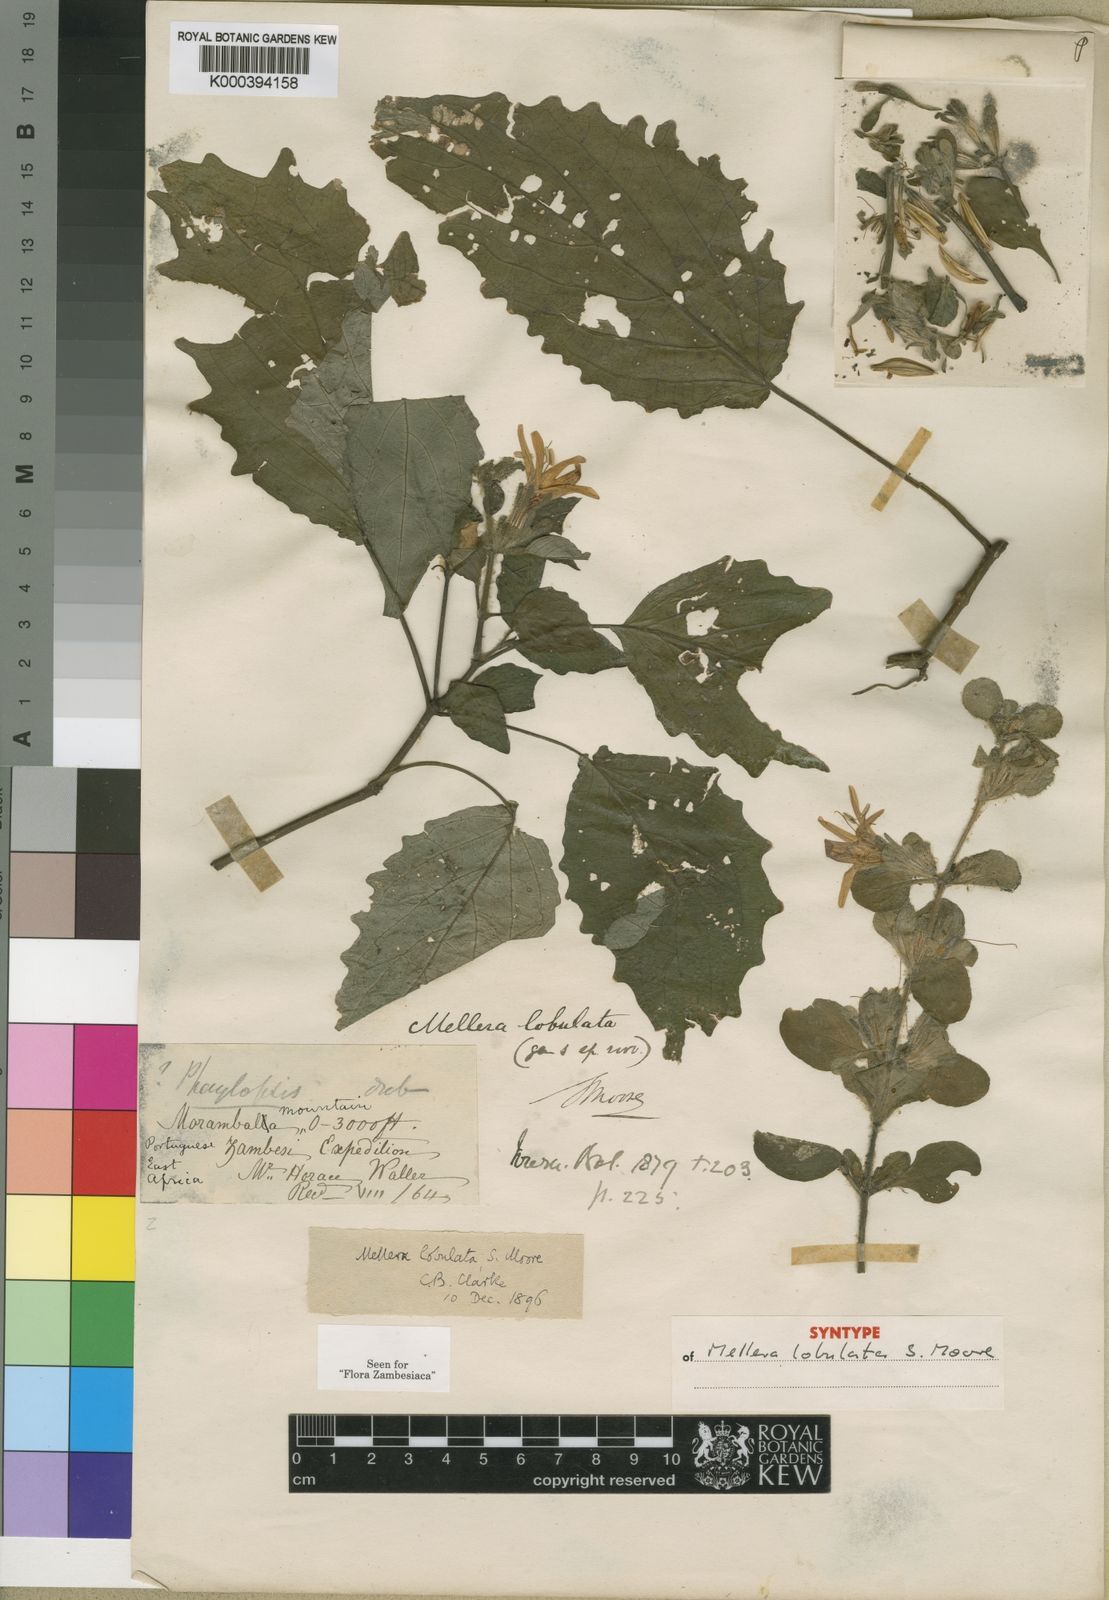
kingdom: Plantae
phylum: Tracheophyta
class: Magnoliopsida
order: Lamiales
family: Acanthaceae
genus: Mellera
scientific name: Mellera lobulata
